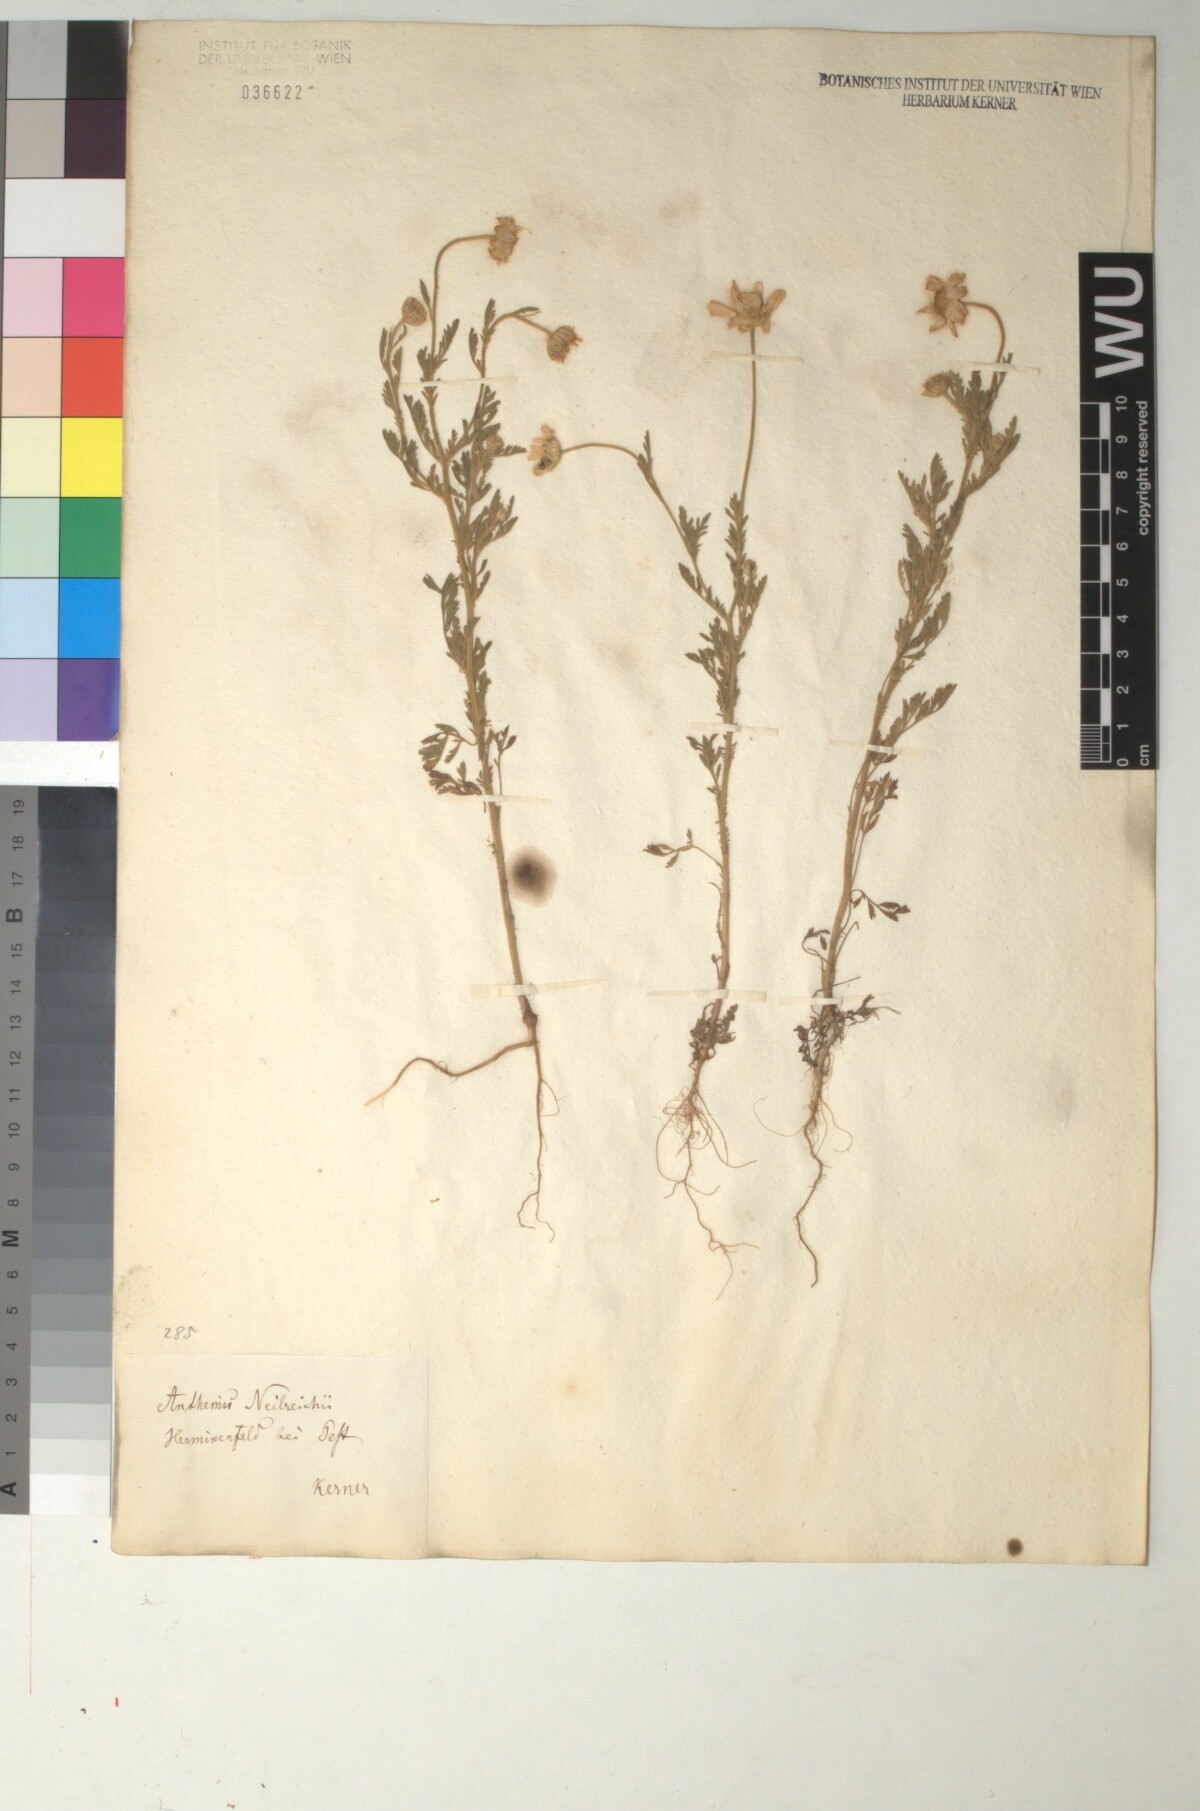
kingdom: Plantae
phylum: Tracheophyta
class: Magnoliopsida
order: Asterales
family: Asteraceae
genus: Anthemis
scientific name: Anthemis ruthenica
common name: Eastern chamomile
